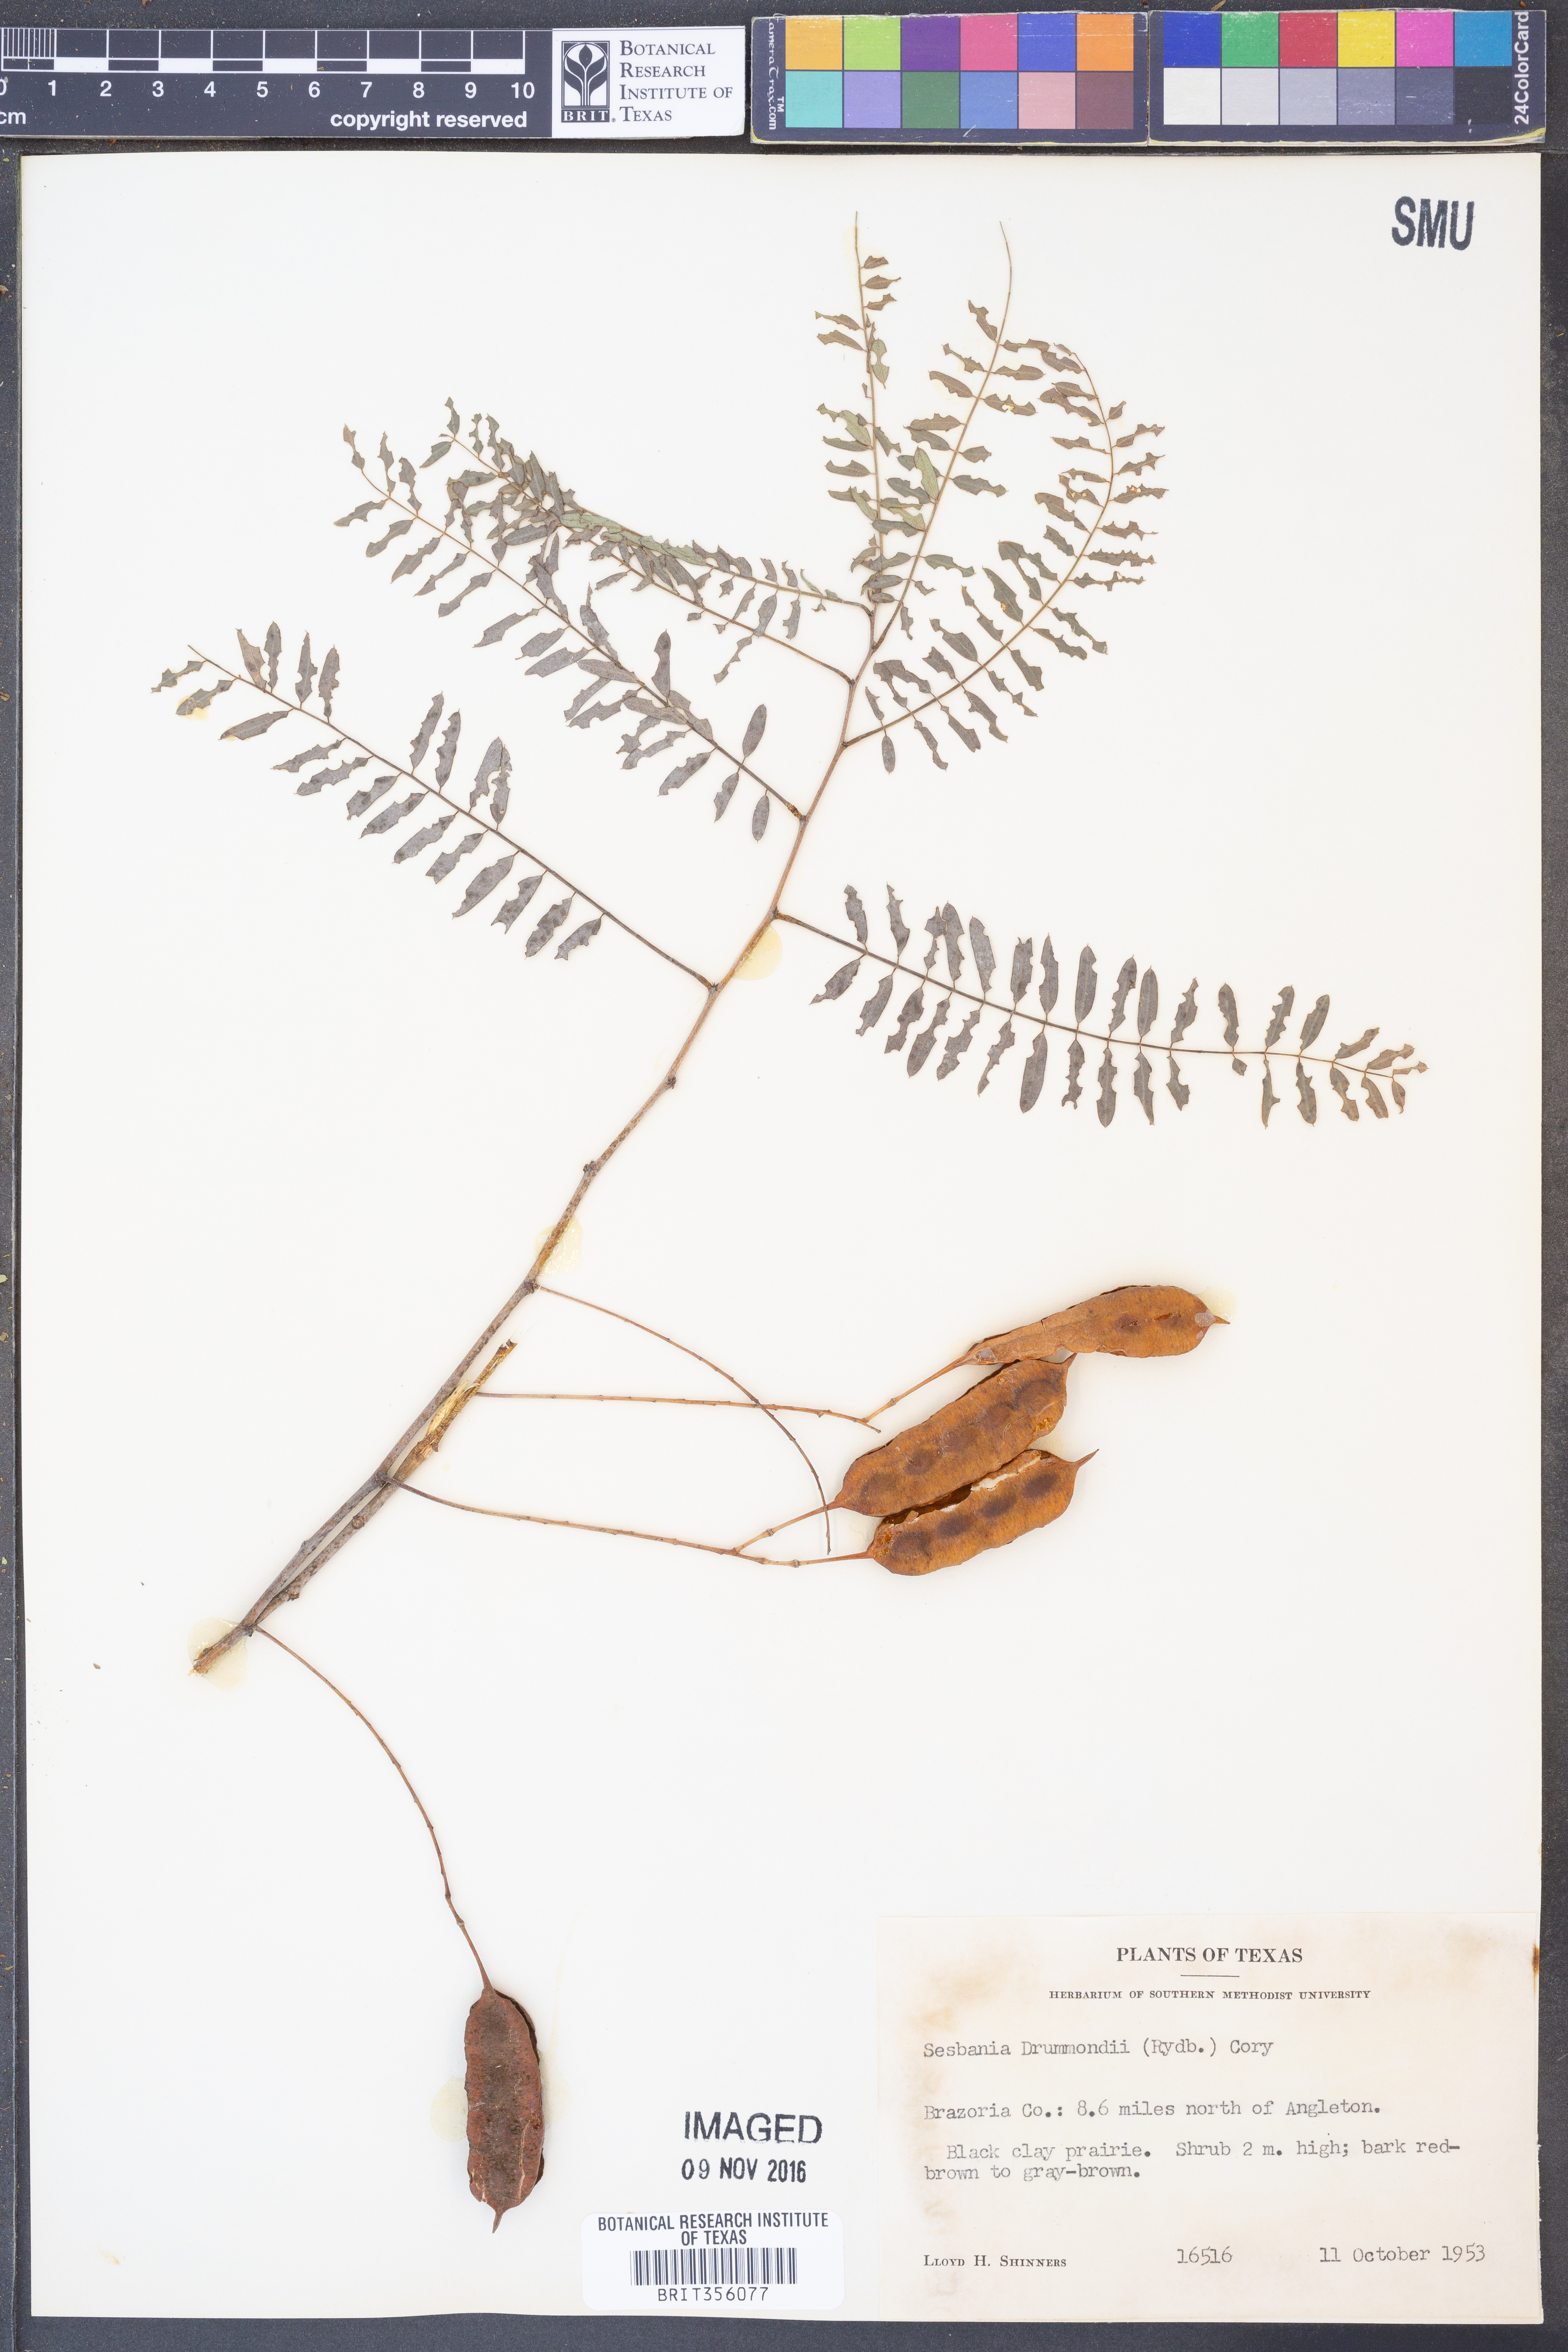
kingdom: Plantae
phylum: Tracheophyta
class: Magnoliopsida
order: Fabales
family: Fabaceae
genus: Sesbania
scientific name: Sesbania drummondii
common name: Poison-bean
